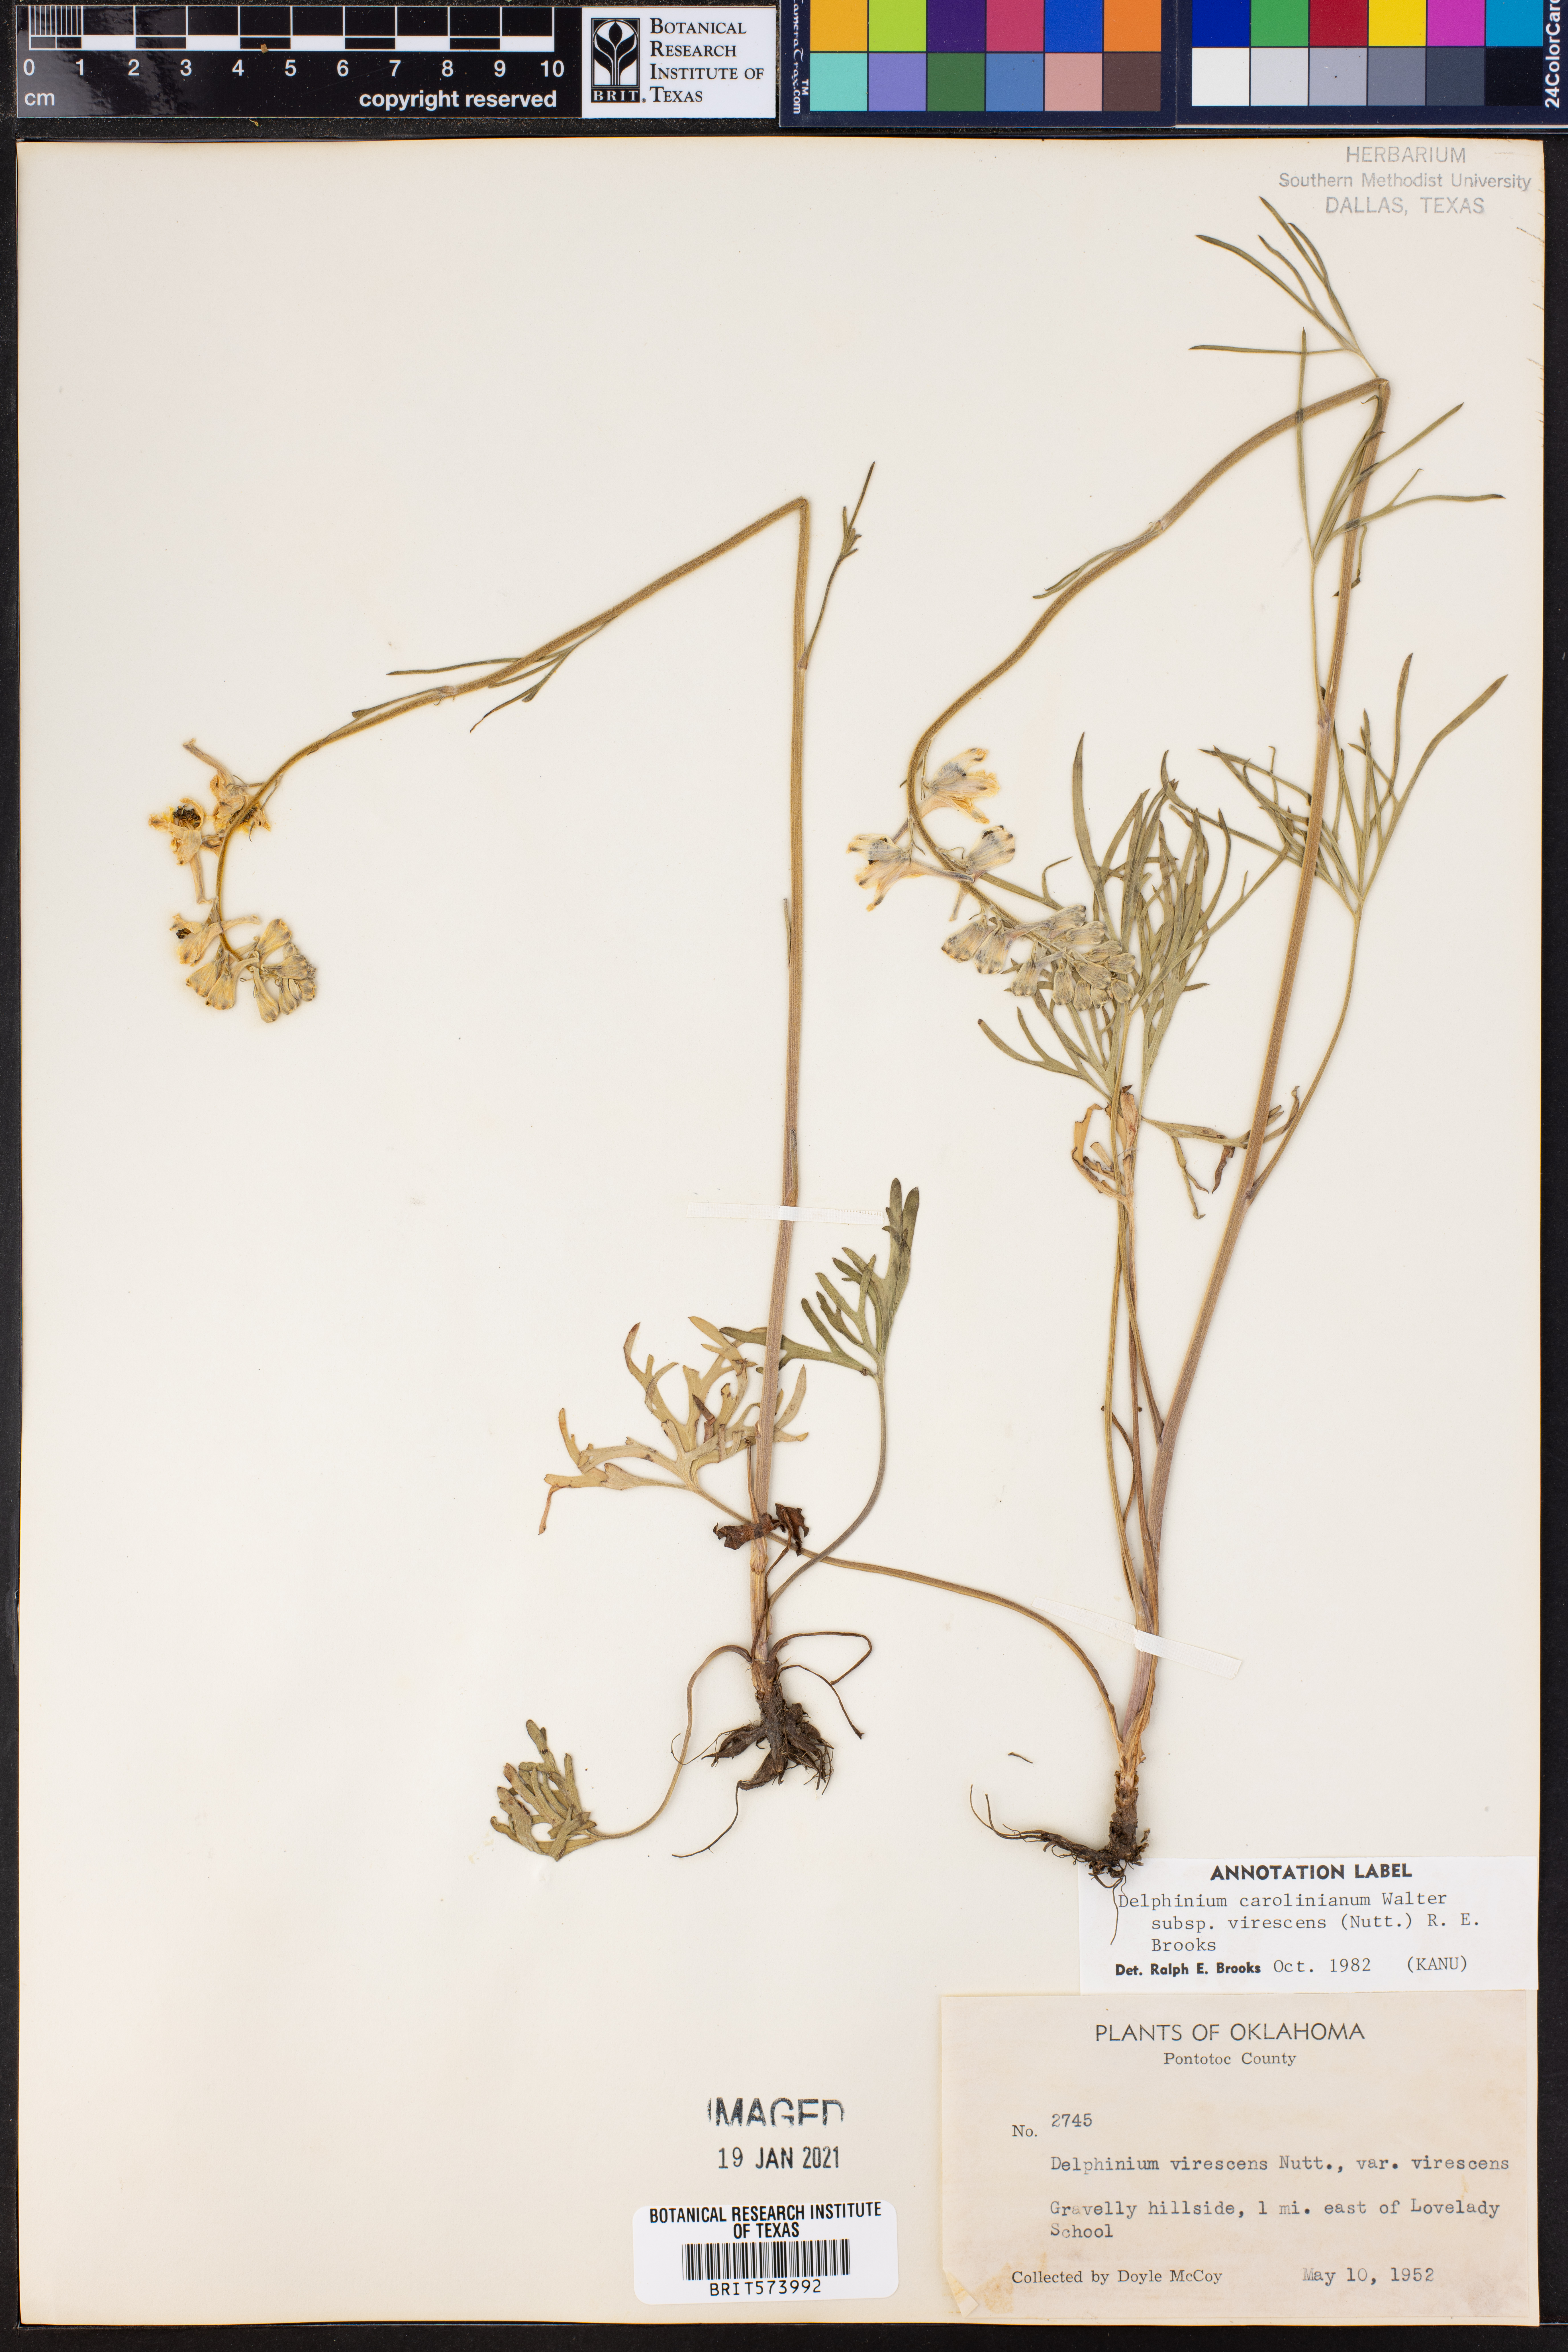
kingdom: Plantae
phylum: Tracheophyta
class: Magnoliopsida
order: Ranunculales
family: Ranunculaceae
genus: Delphinium
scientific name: Delphinium carolinianum
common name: Carolina larkspur
